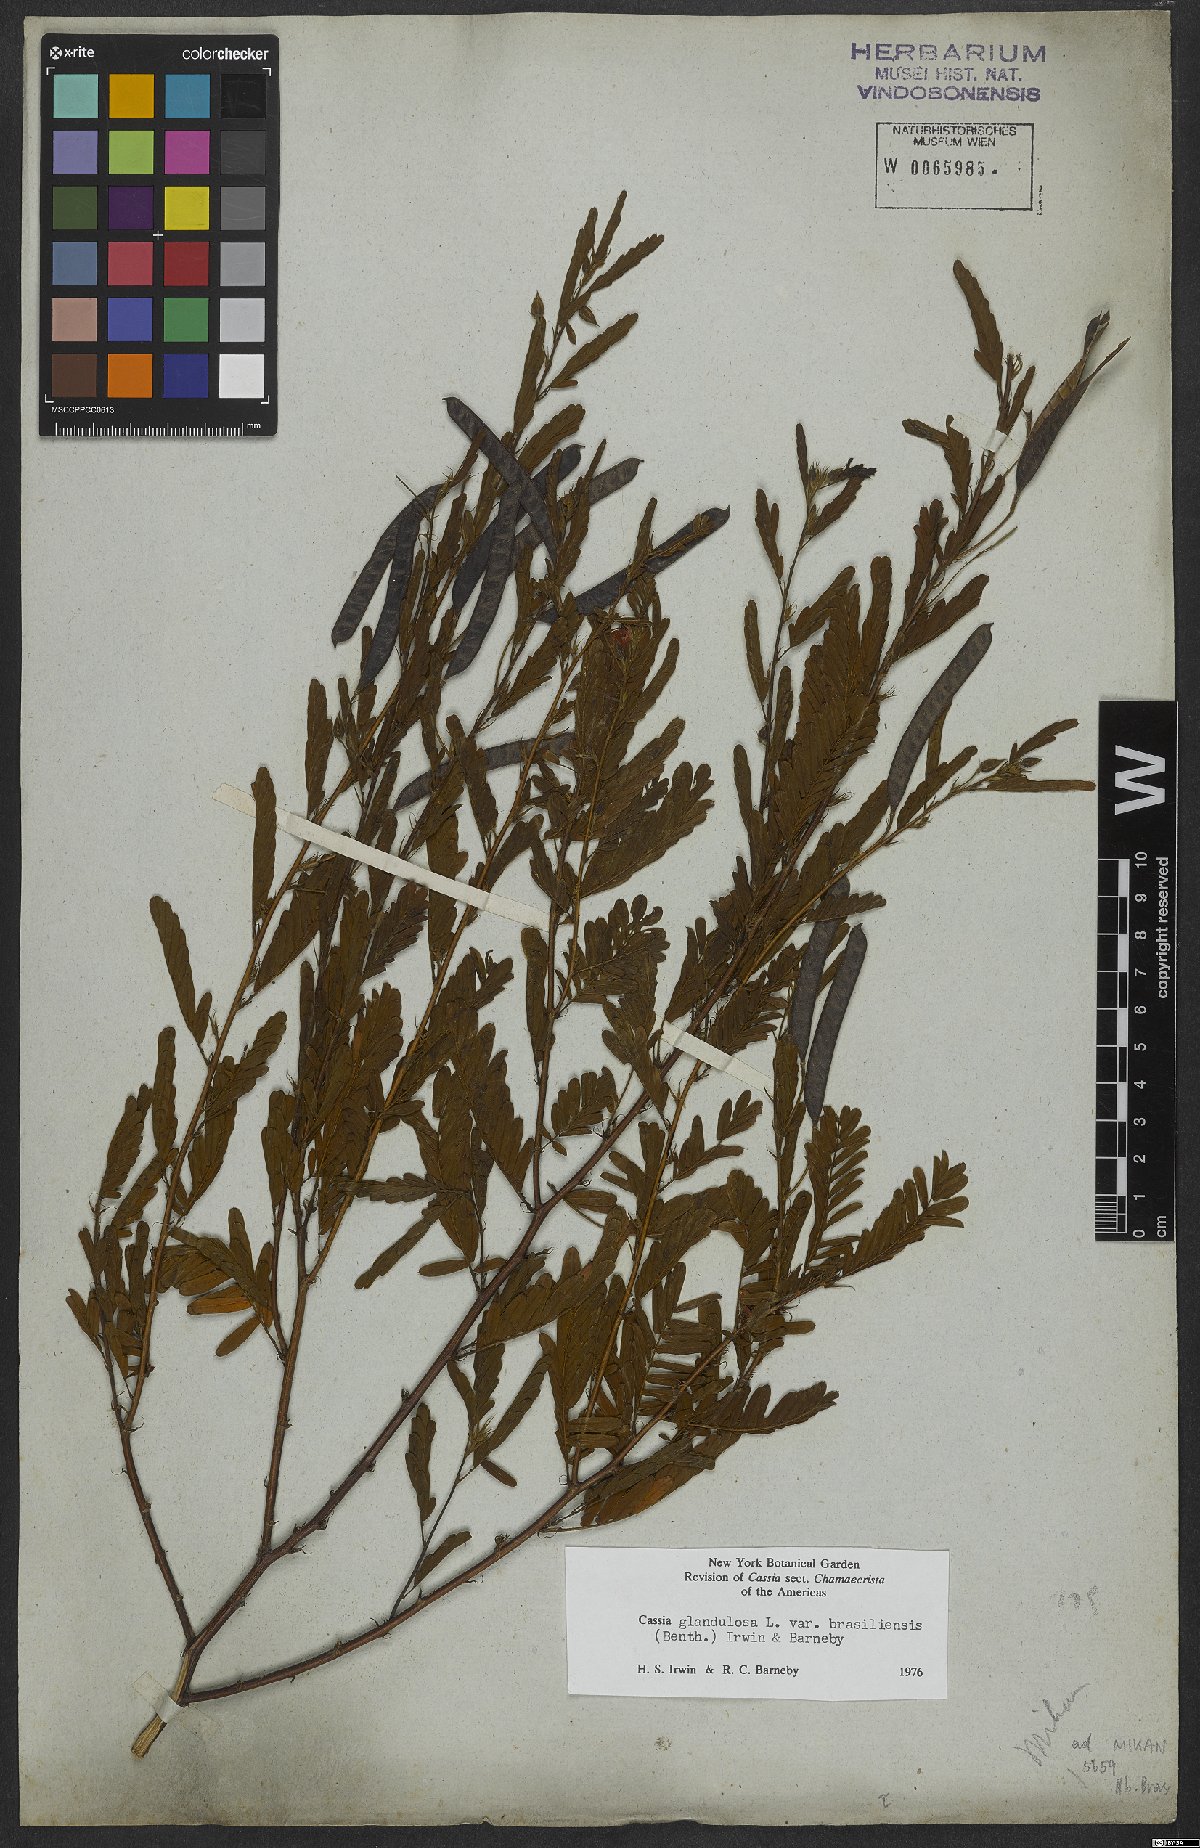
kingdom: Plantae
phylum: Tracheophyta
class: Magnoliopsida
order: Fabales
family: Fabaceae
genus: Chamaecrista
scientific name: Chamaecrista glandulosa
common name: Wild peas
